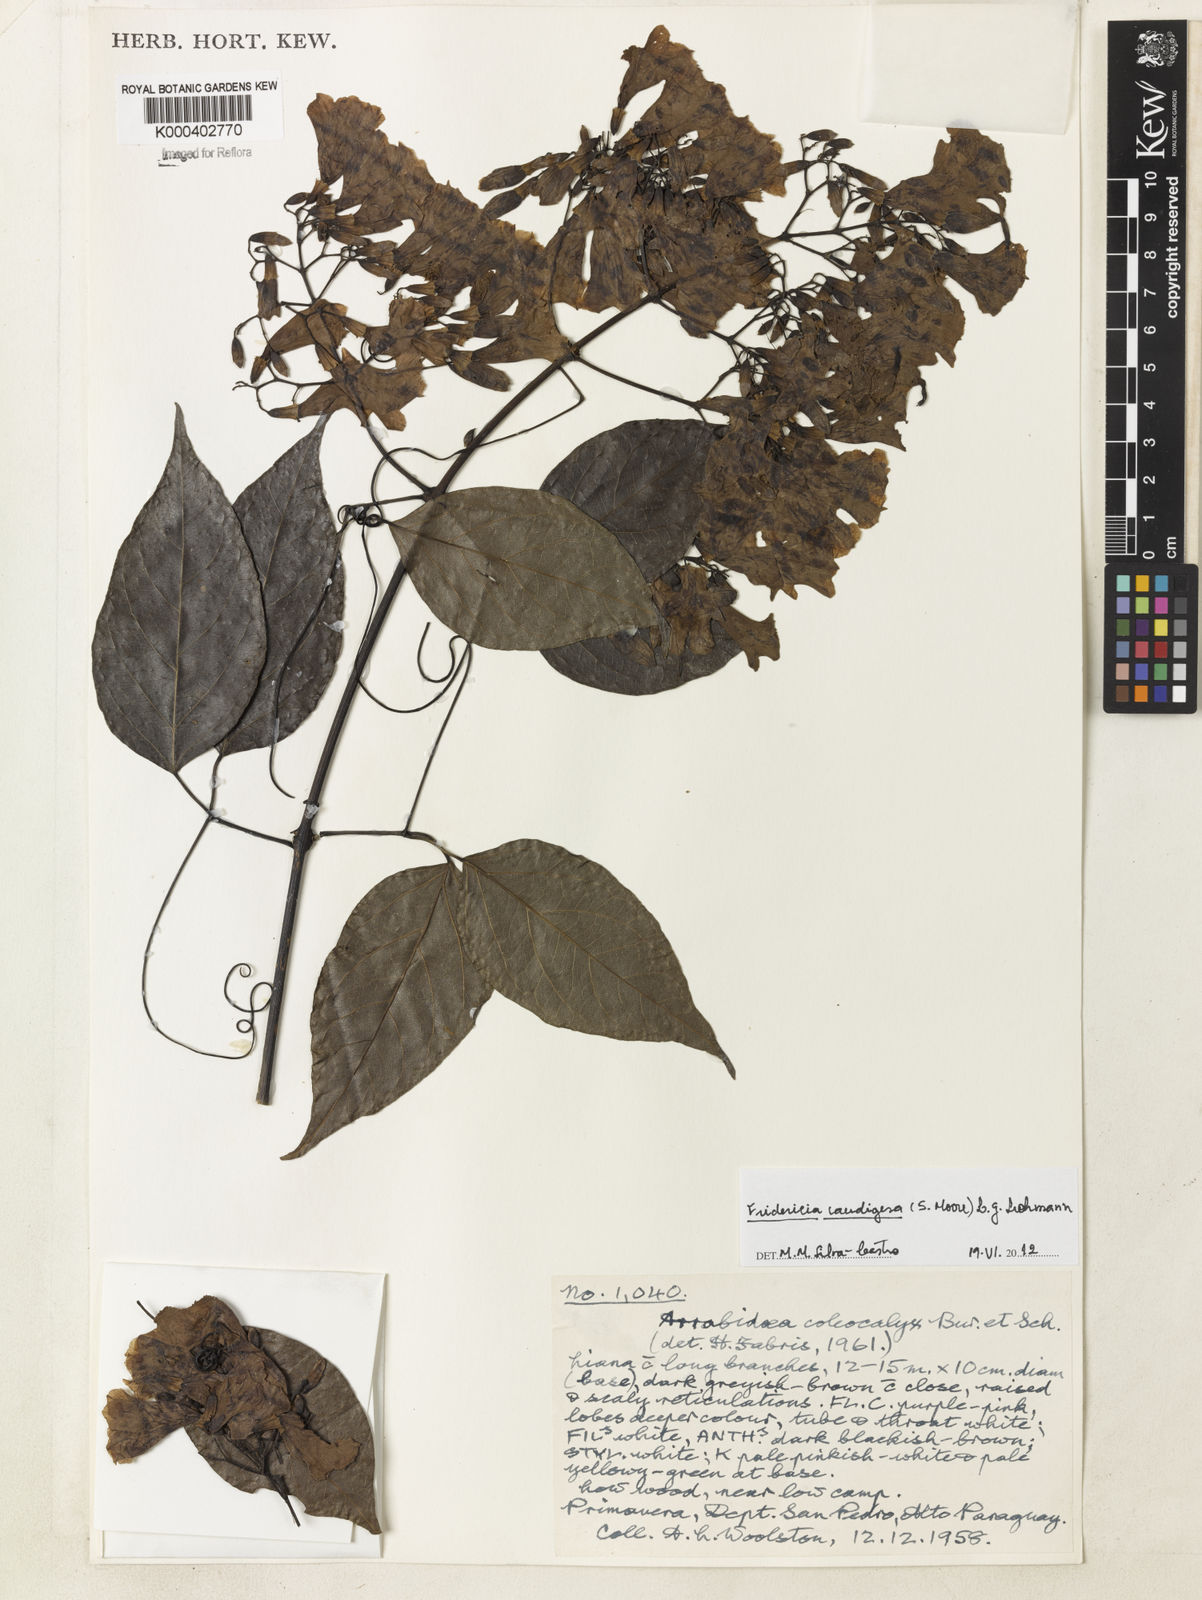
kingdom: Plantae
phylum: Tracheophyta
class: Magnoliopsida
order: Lamiales
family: Bignoniaceae
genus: Fridericia
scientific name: Fridericia caudigera
